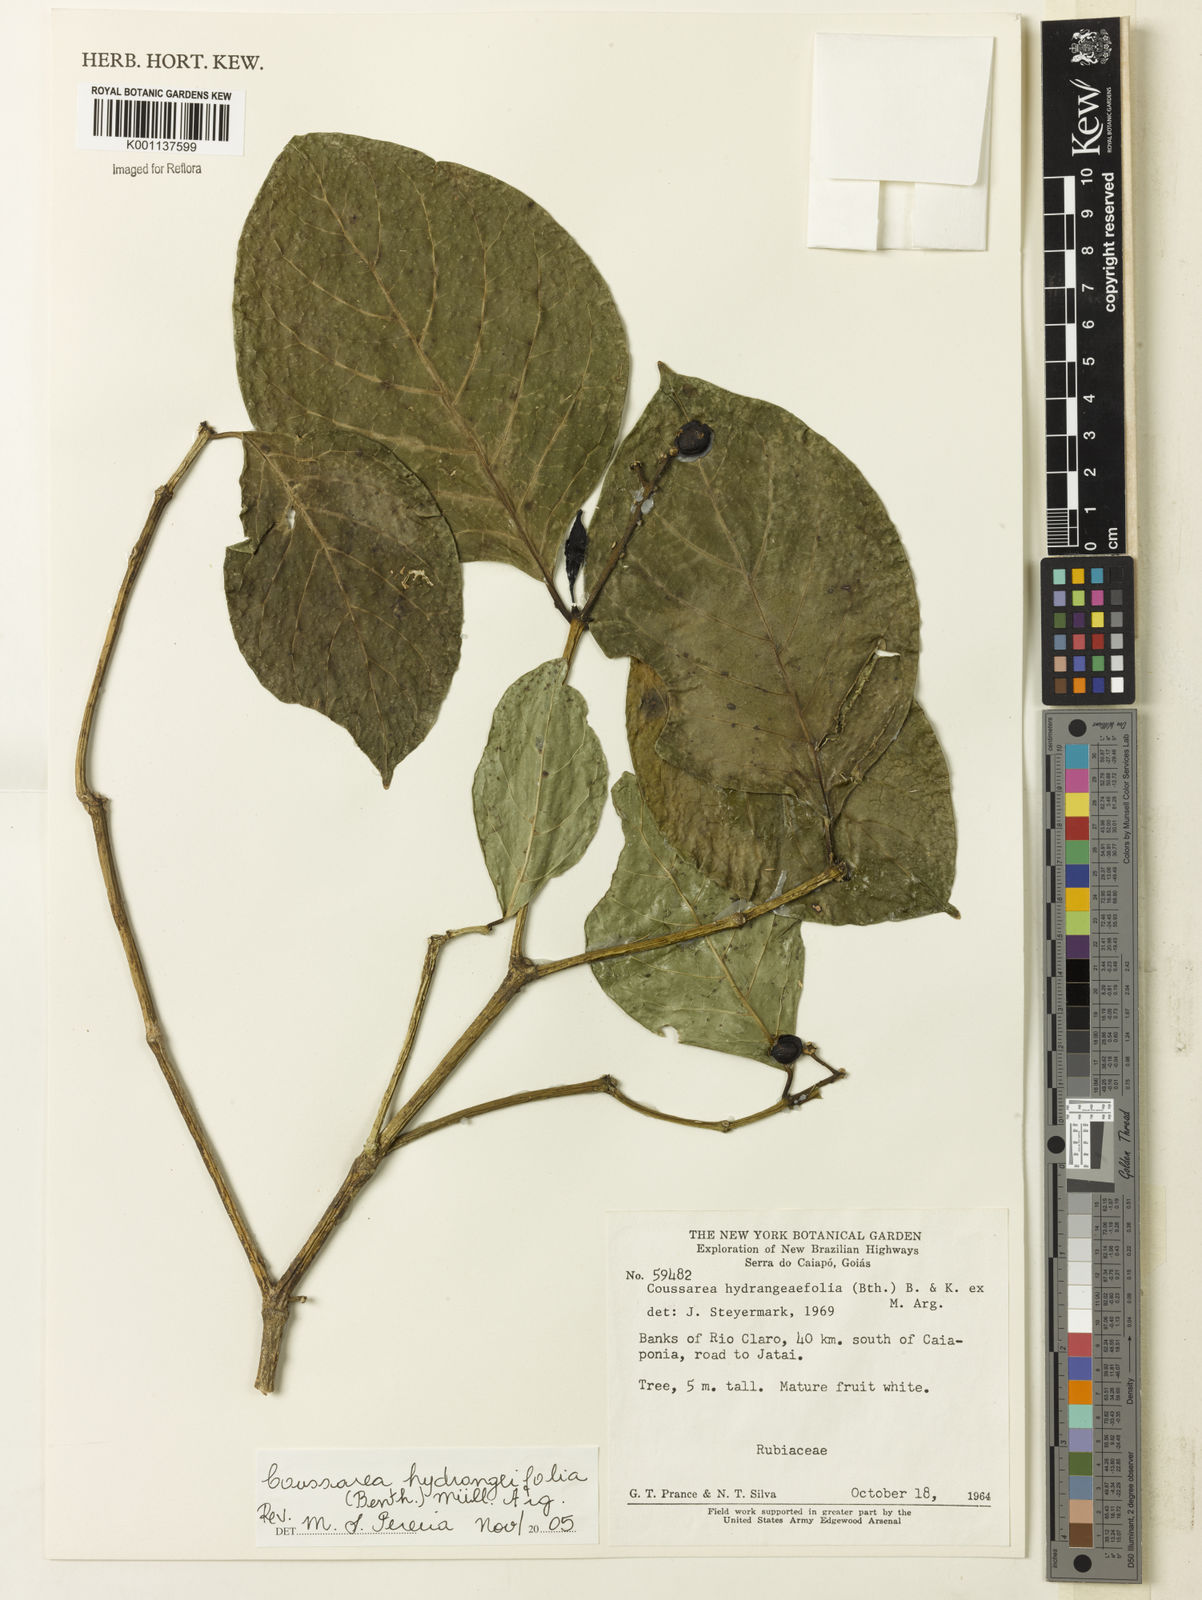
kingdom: Plantae
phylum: Tracheophyta
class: Magnoliopsida
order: Gentianales
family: Rubiaceae
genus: Coussarea
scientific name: Coussarea
